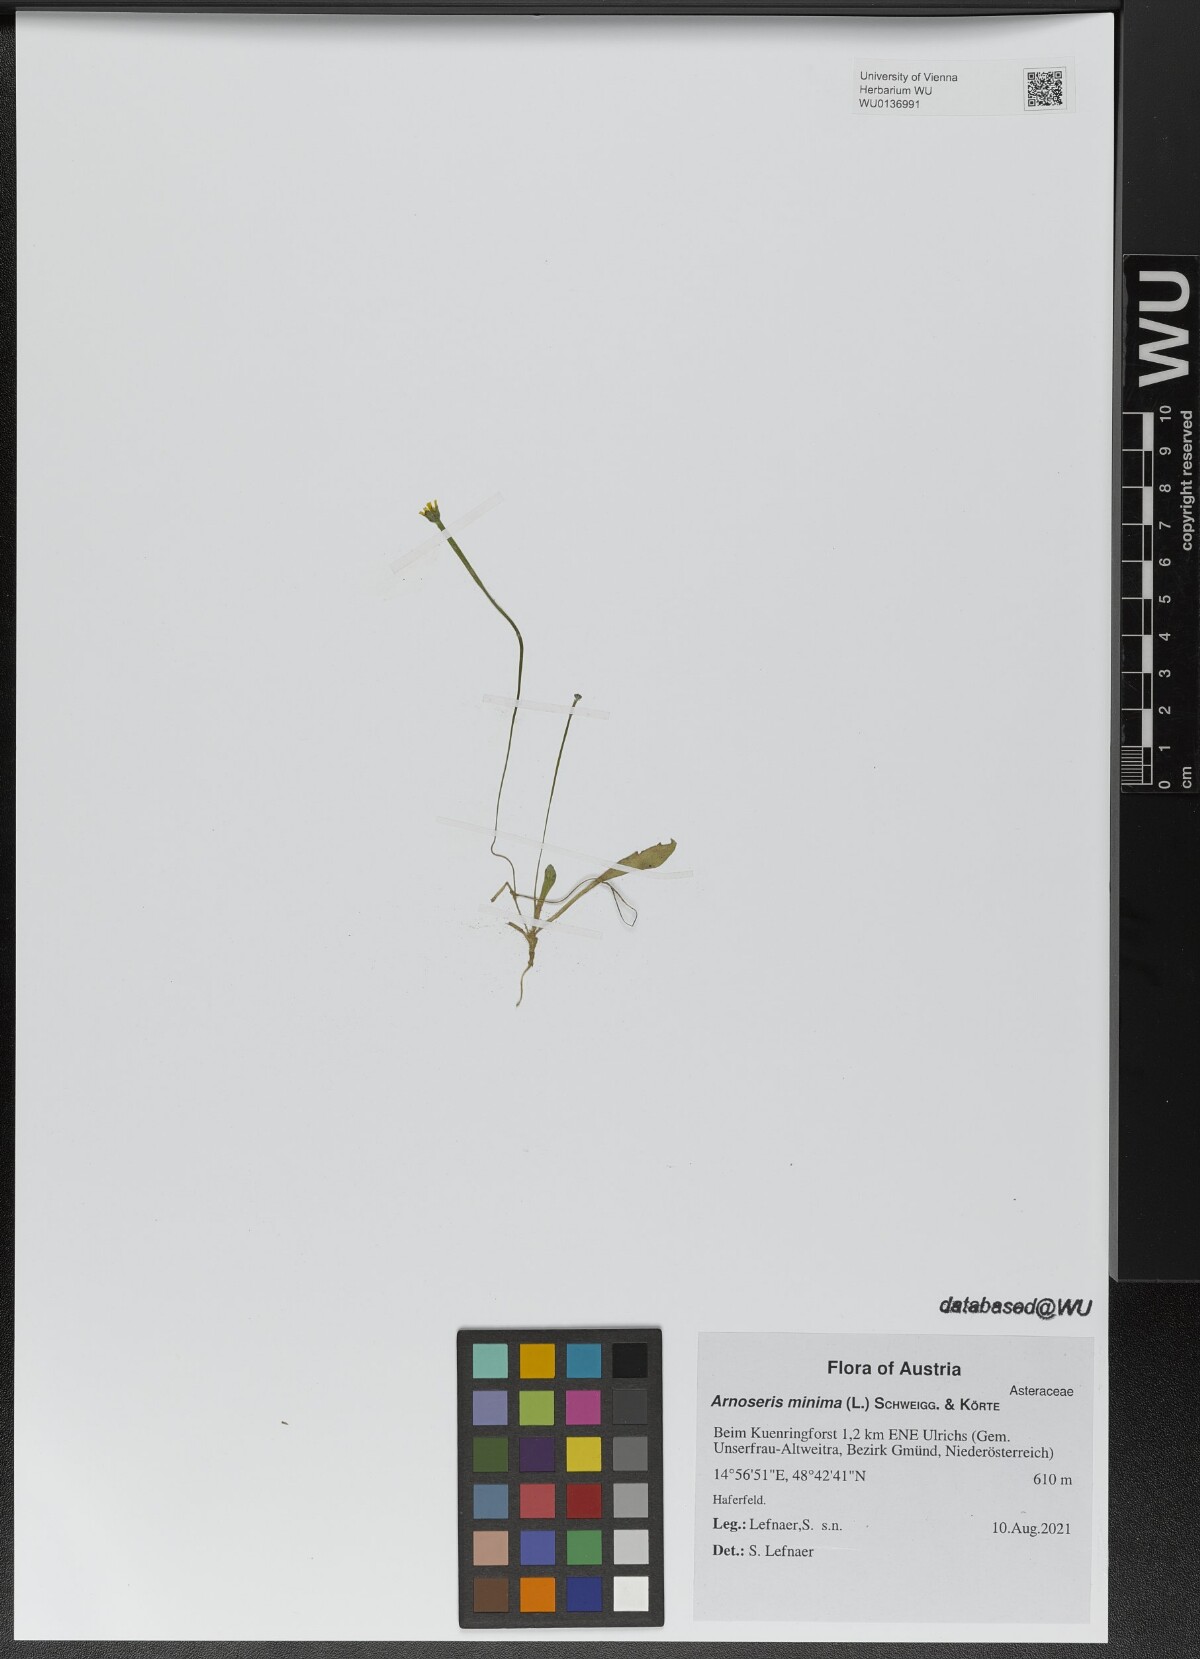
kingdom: Plantae
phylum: Tracheophyta
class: Magnoliopsida
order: Asterales
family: Asteraceae
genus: Arnoseris
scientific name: Arnoseris minima
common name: Lamb's succory
